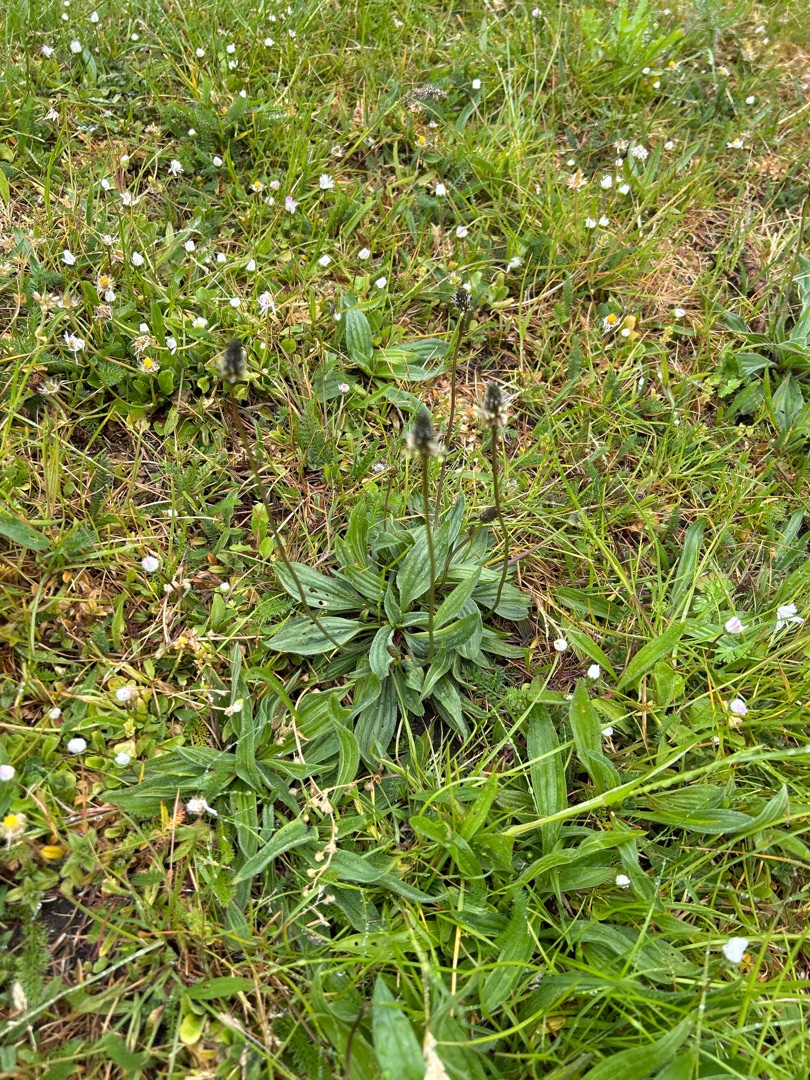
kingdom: Plantae
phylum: Tracheophyta
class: Magnoliopsida
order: Lamiales
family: Plantaginaceae
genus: Plantago
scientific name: Plantago lanceolata
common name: Lancet-vejbred
